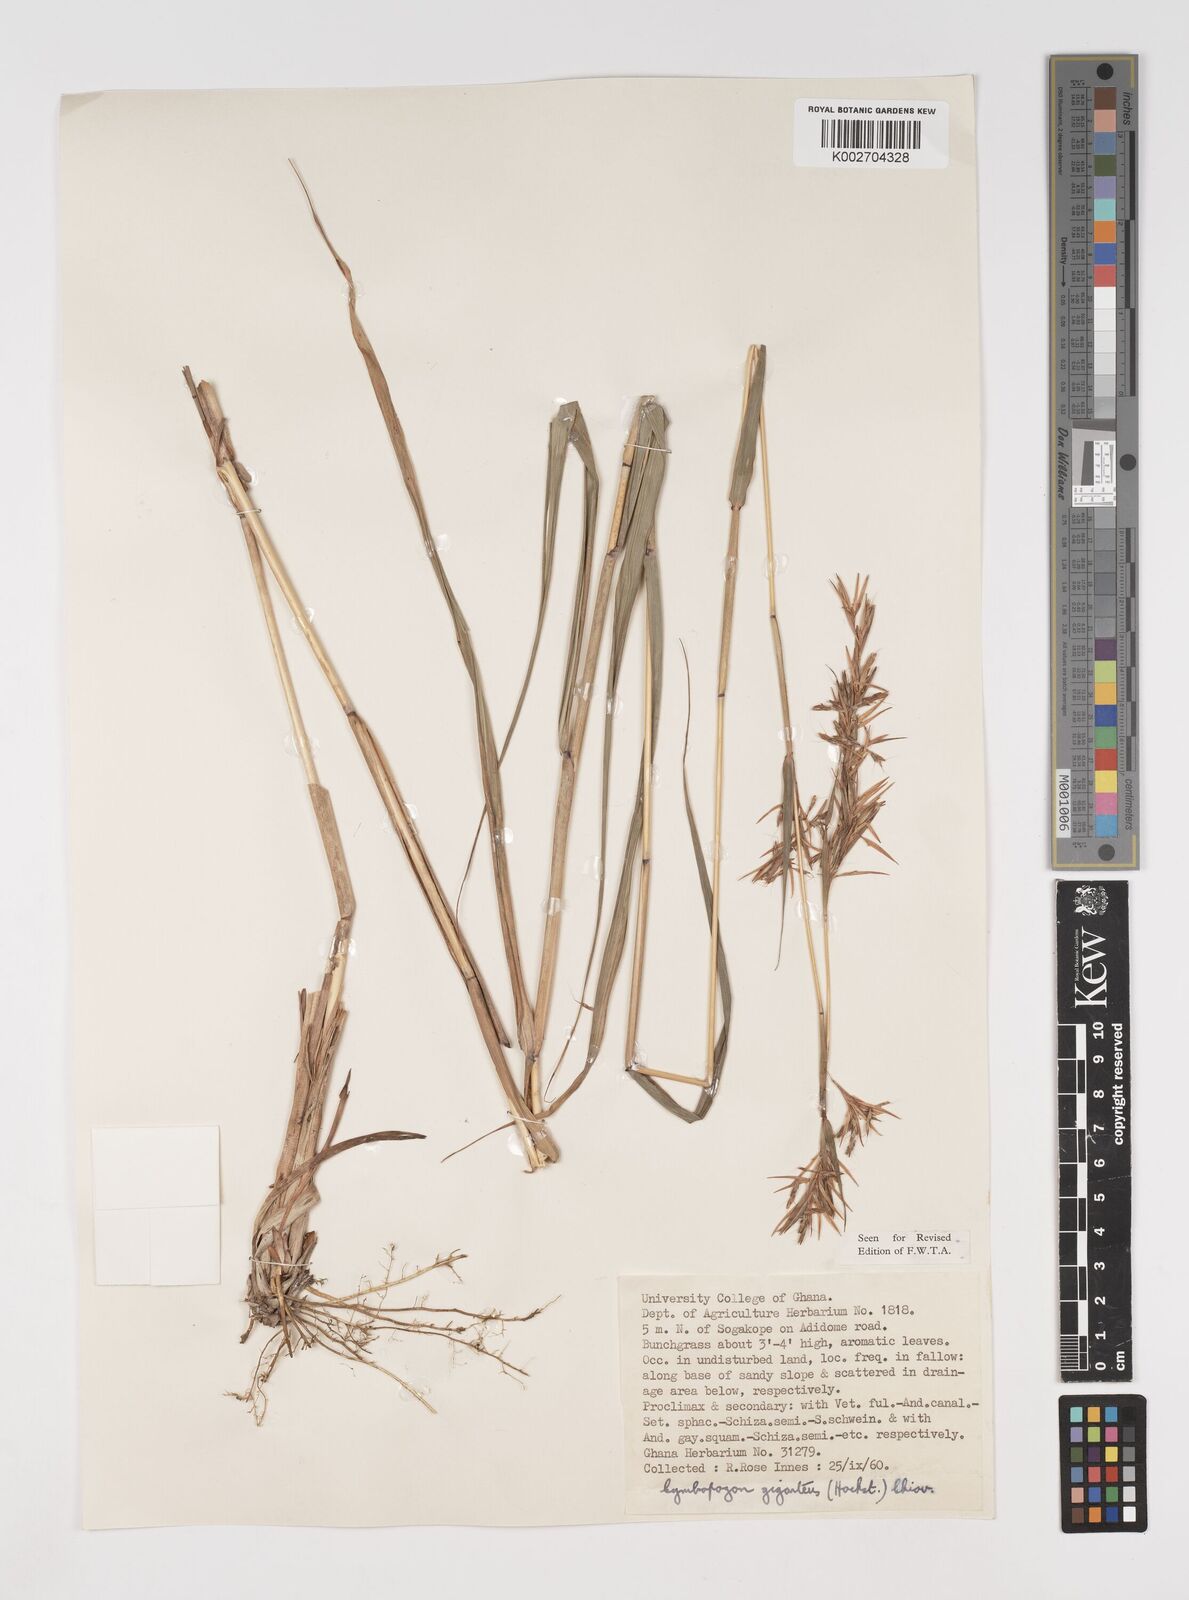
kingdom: Plantae
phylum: Tracheophyta
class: Liliopsida
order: Poales
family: Poaceae
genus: Cymbopogon
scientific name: Cymbopogon giganteus
